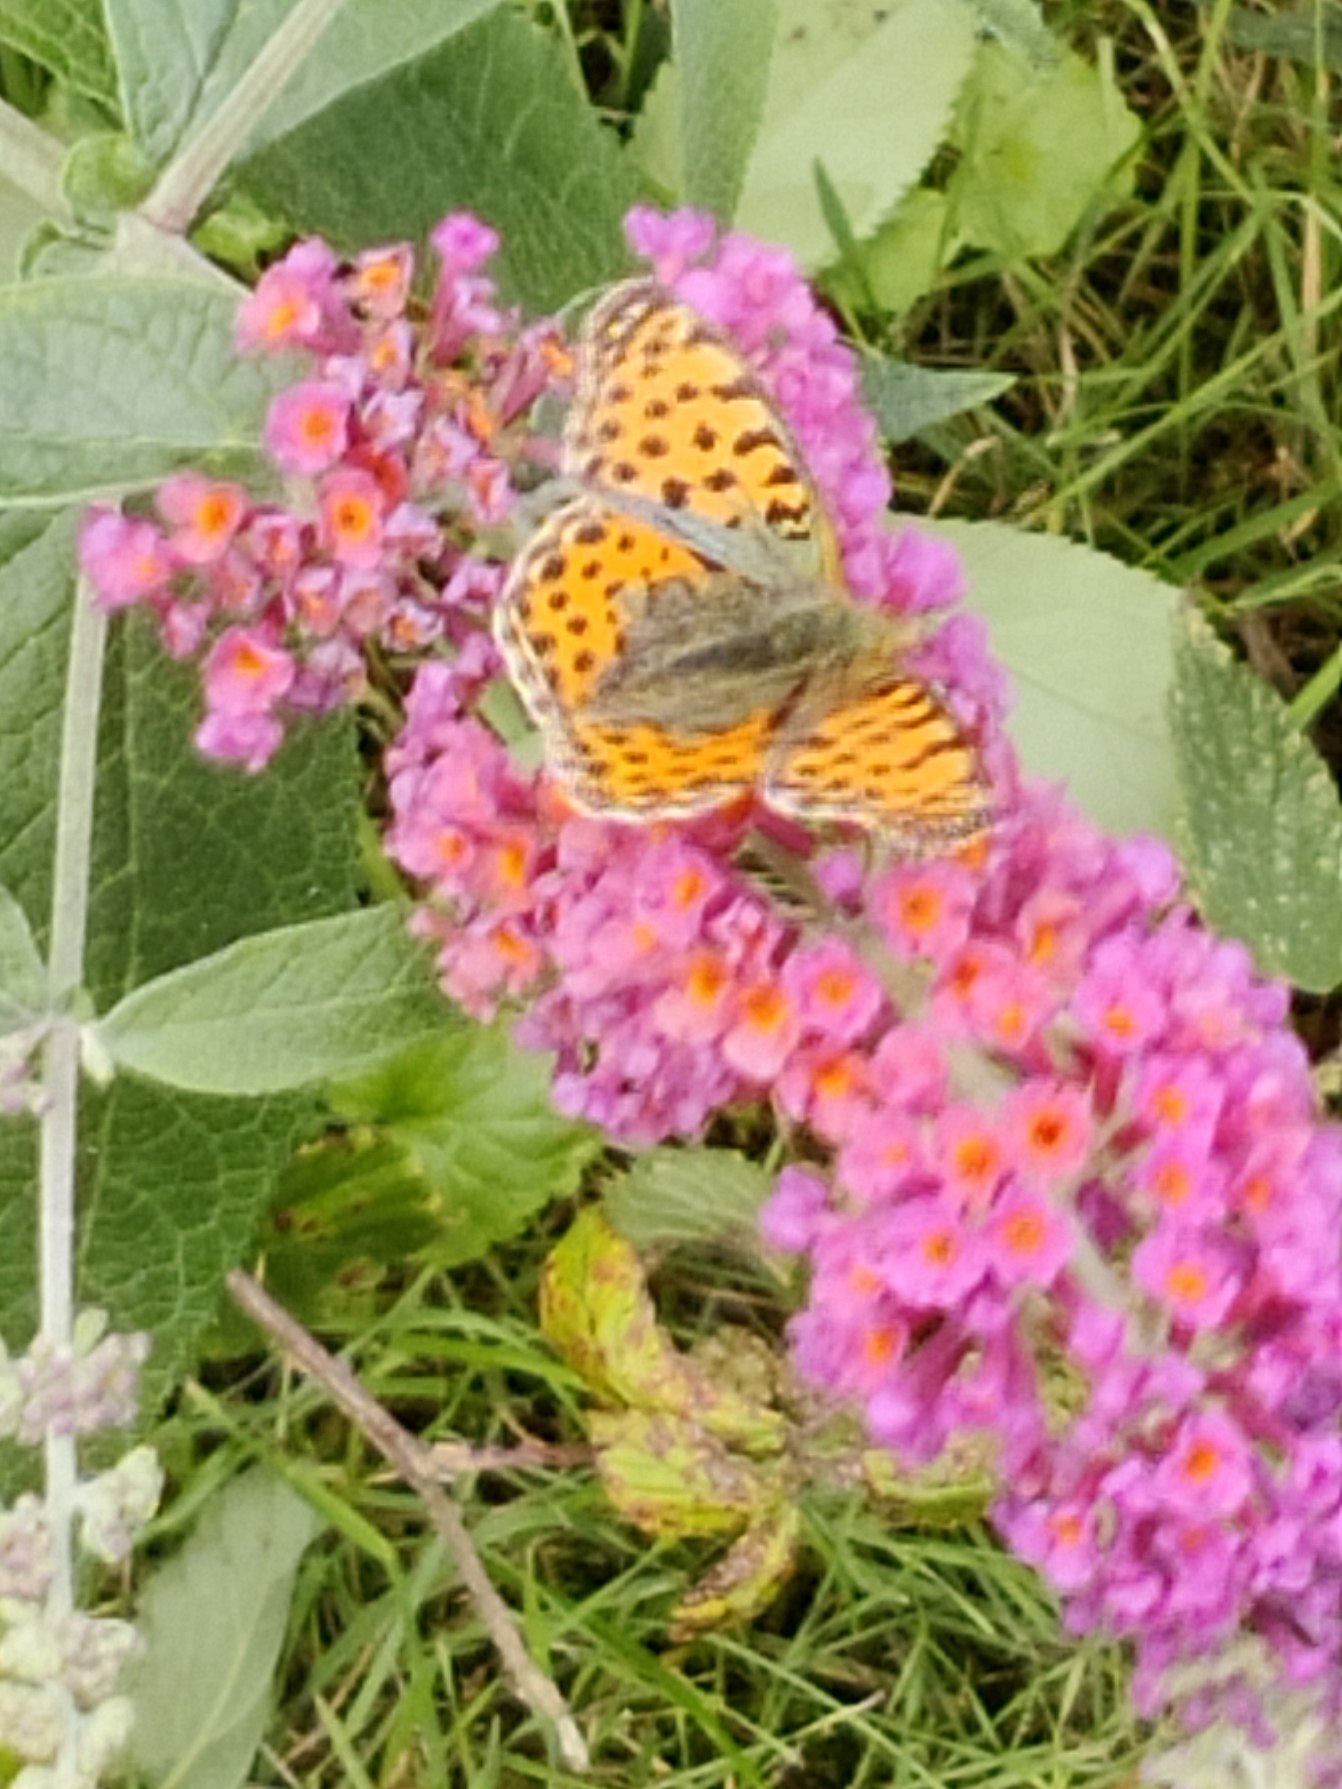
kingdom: Animalia
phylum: Arthropoda
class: Insecta
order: Lepidoptera
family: Nymphalidae
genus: Issoria
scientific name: Issoria lathonia
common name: Storplettet perlemorsommerfugl
